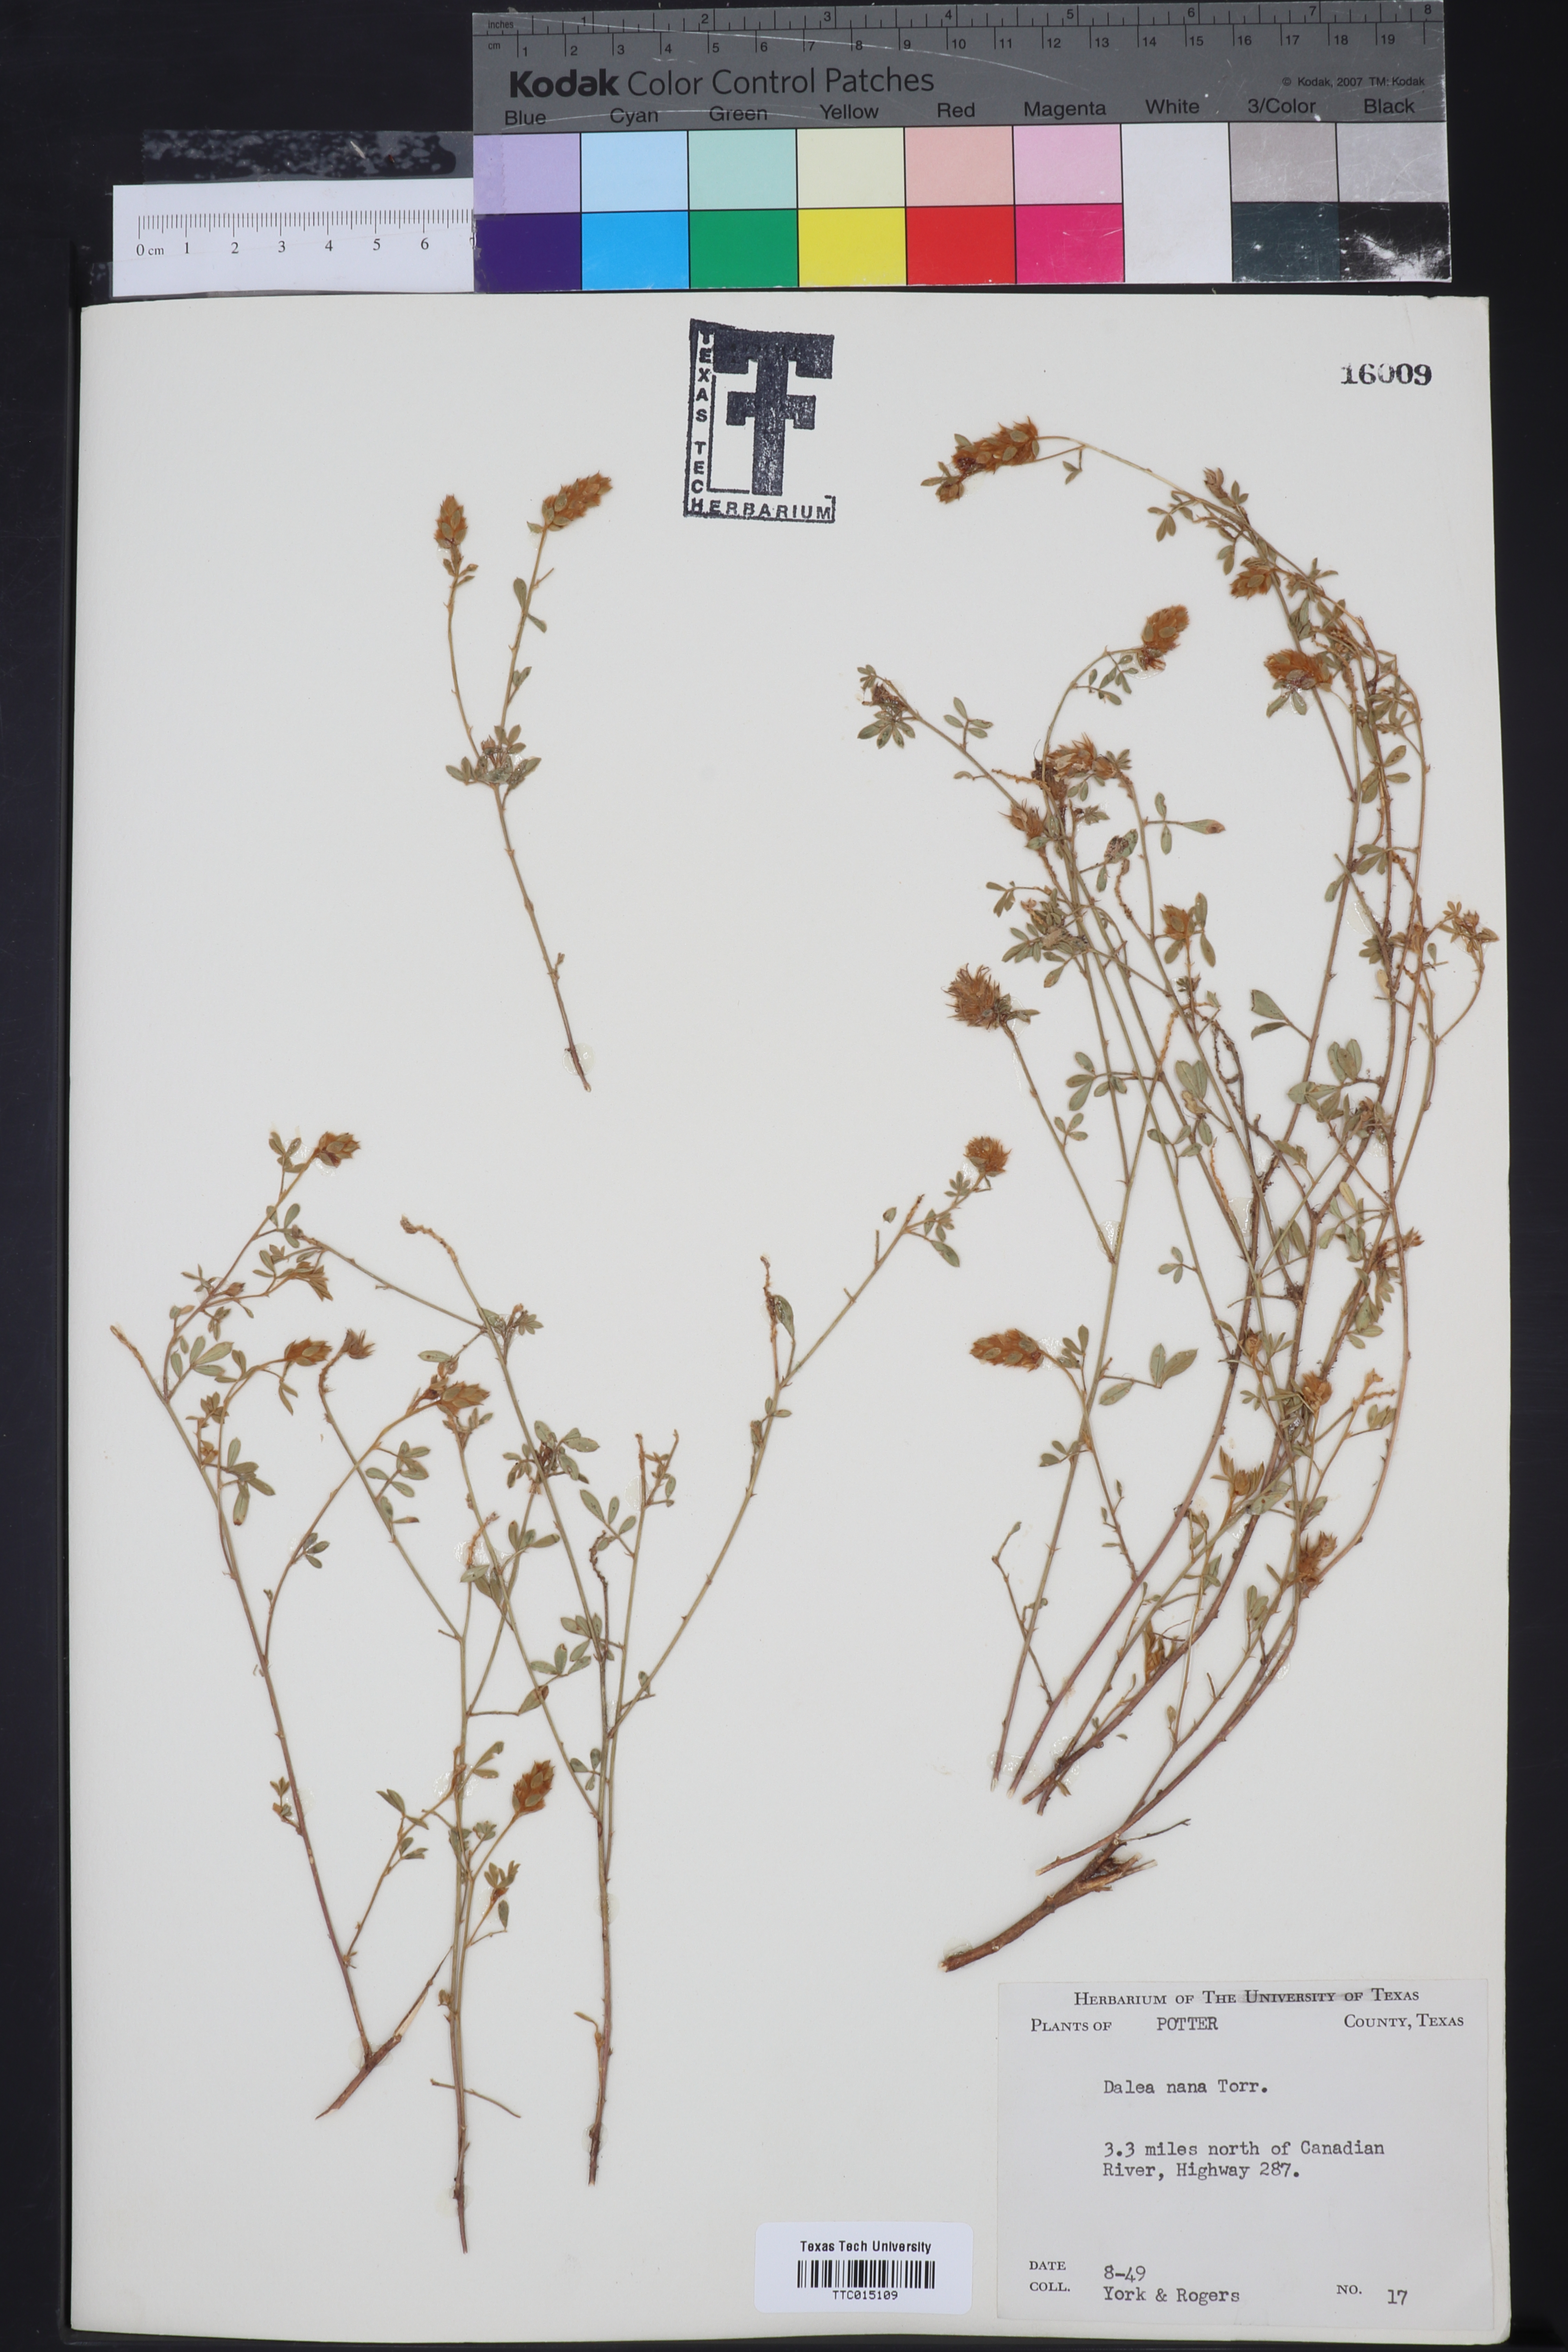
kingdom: Plantae
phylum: Tracheophyta
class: Magnoliopsida
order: Fabales
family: Fabaceae
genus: Dalea
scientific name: Dalea nana
